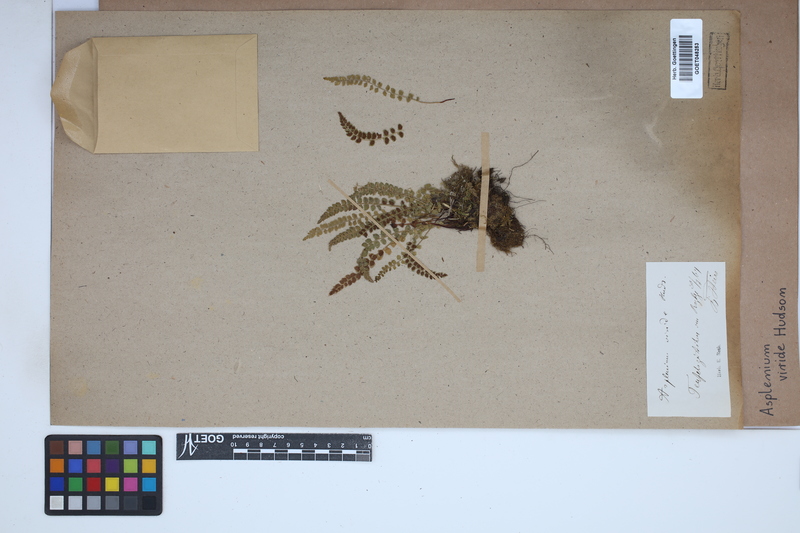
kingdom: Plantae
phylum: Tracheophyta
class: Polypodiopsida
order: Polypodiales
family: Aspleniaceae
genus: Asplenium
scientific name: Asplenium viride
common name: Green spleenwort
